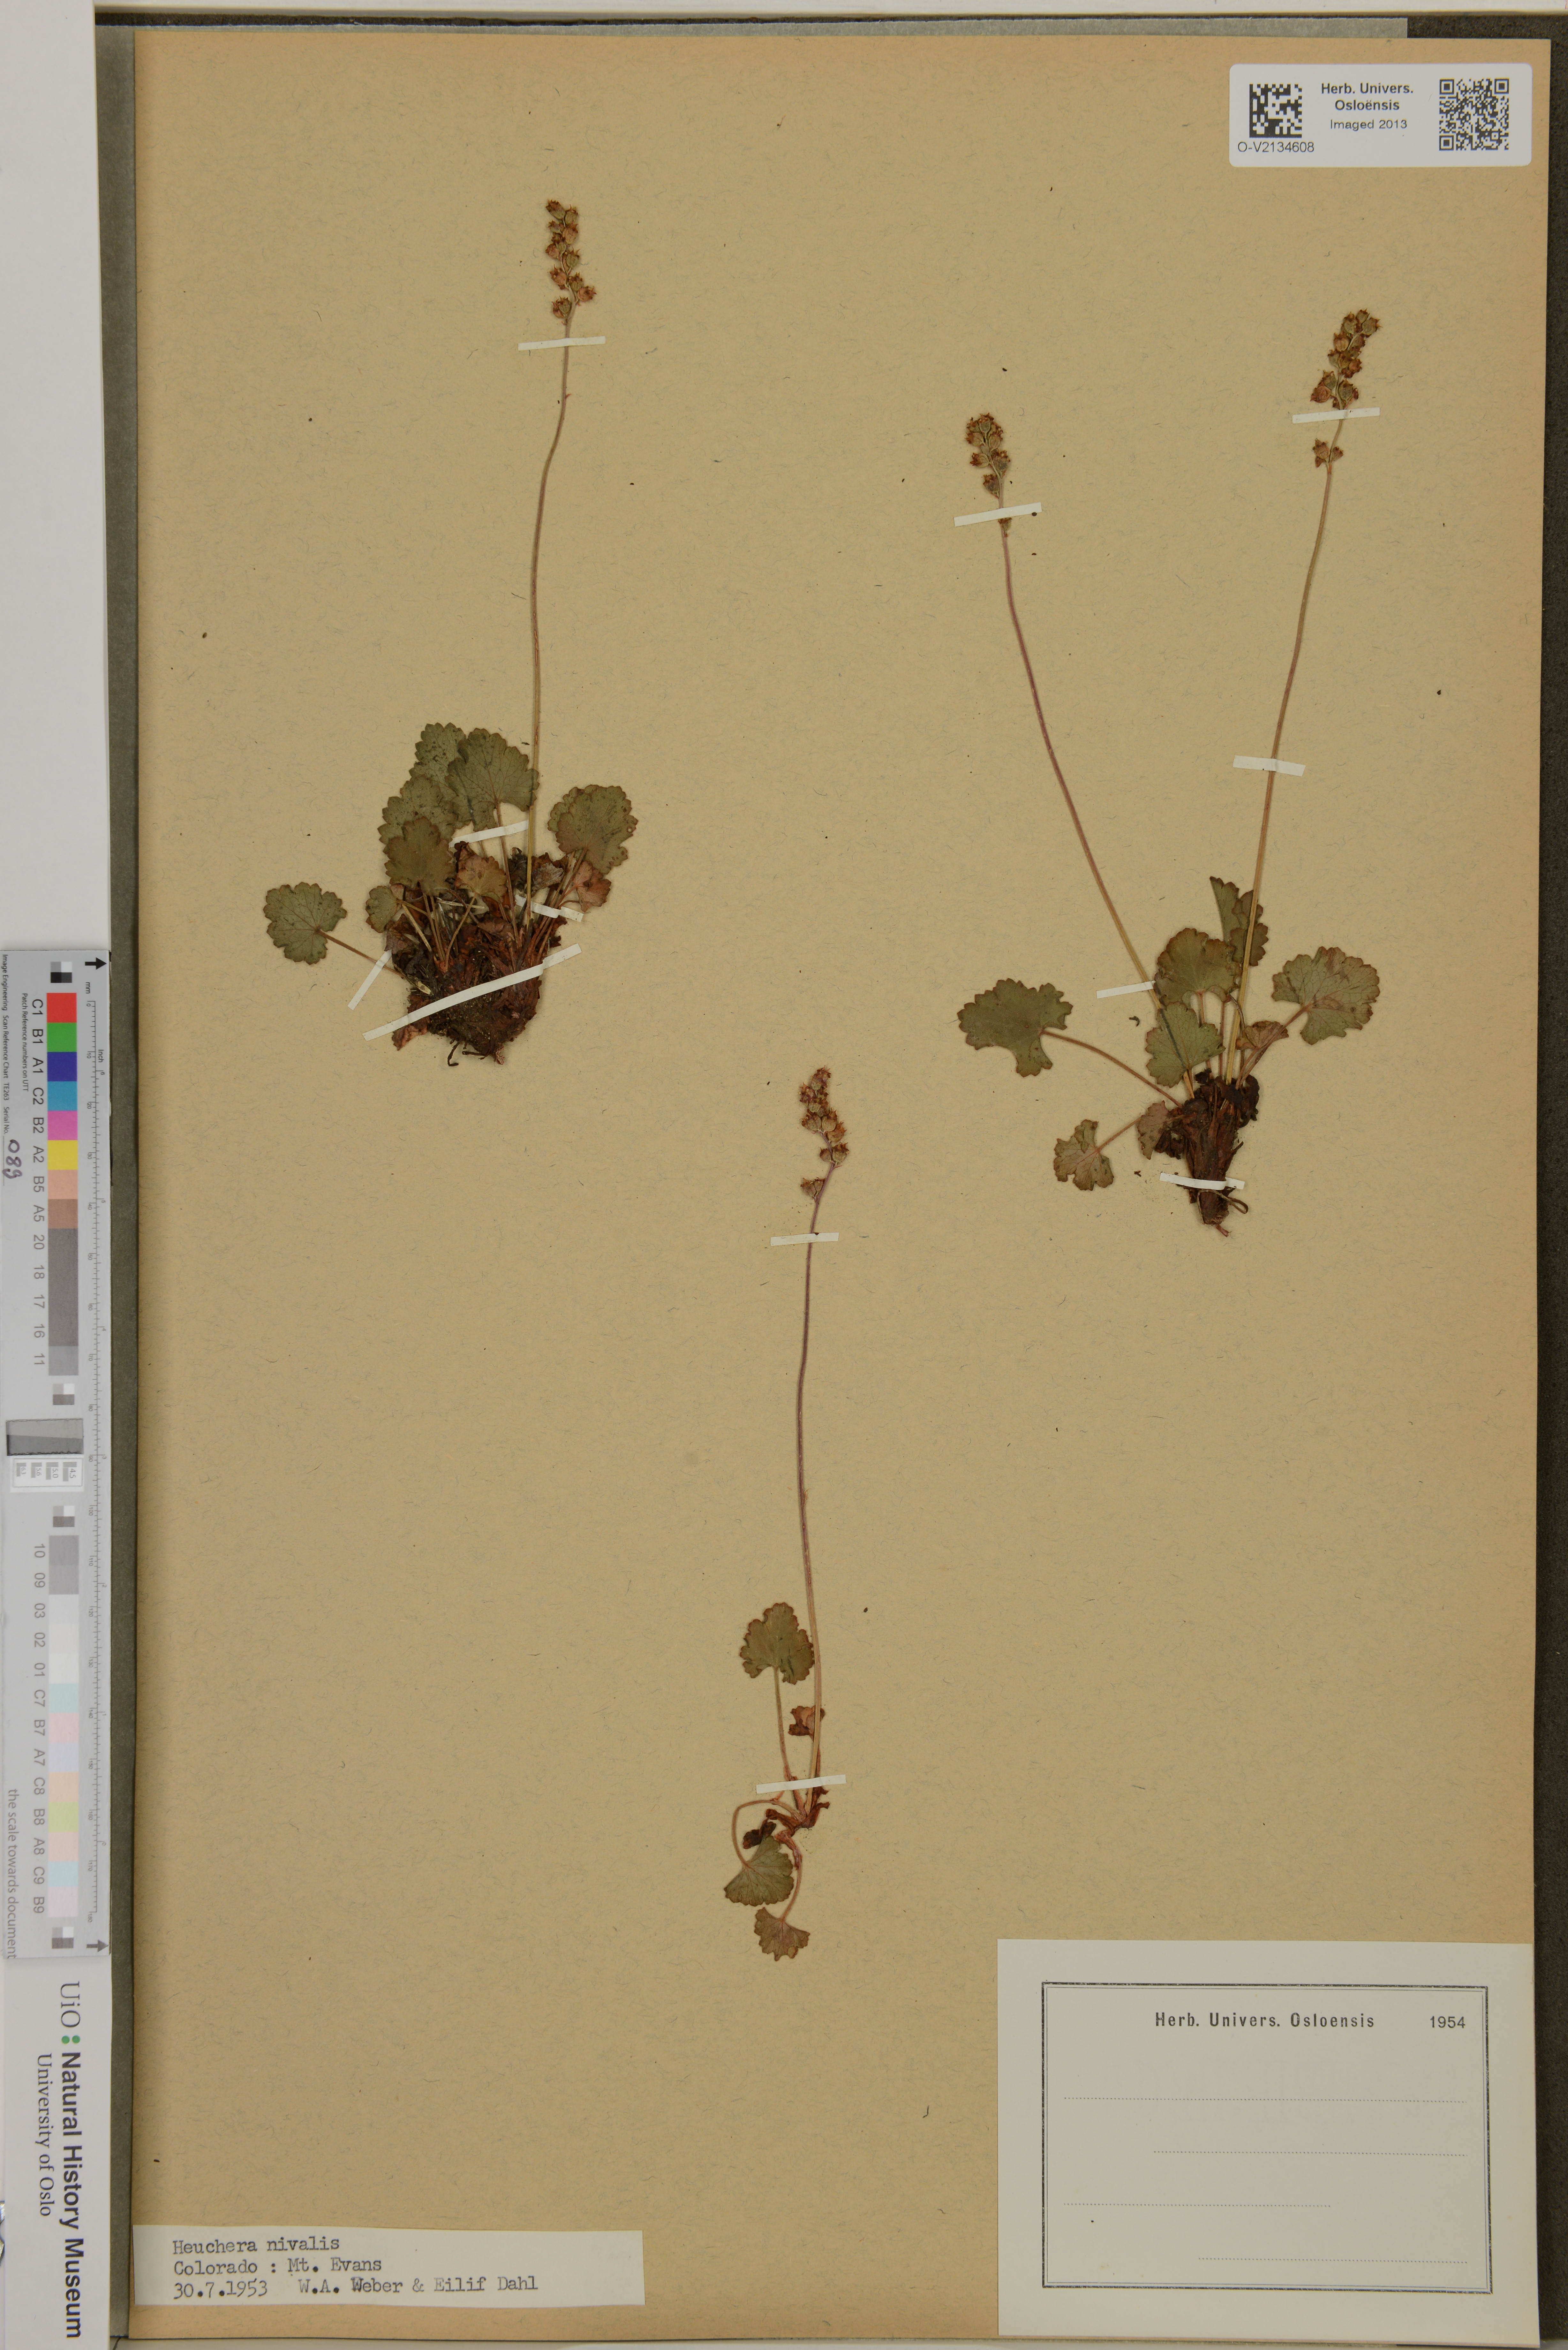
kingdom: Plantae
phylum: Tracheophyta
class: Magnoliopsida
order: Saxifragales
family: Saxifragaceae
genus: Heuchera
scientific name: Heuchera parvifolia
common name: Common alumroot
